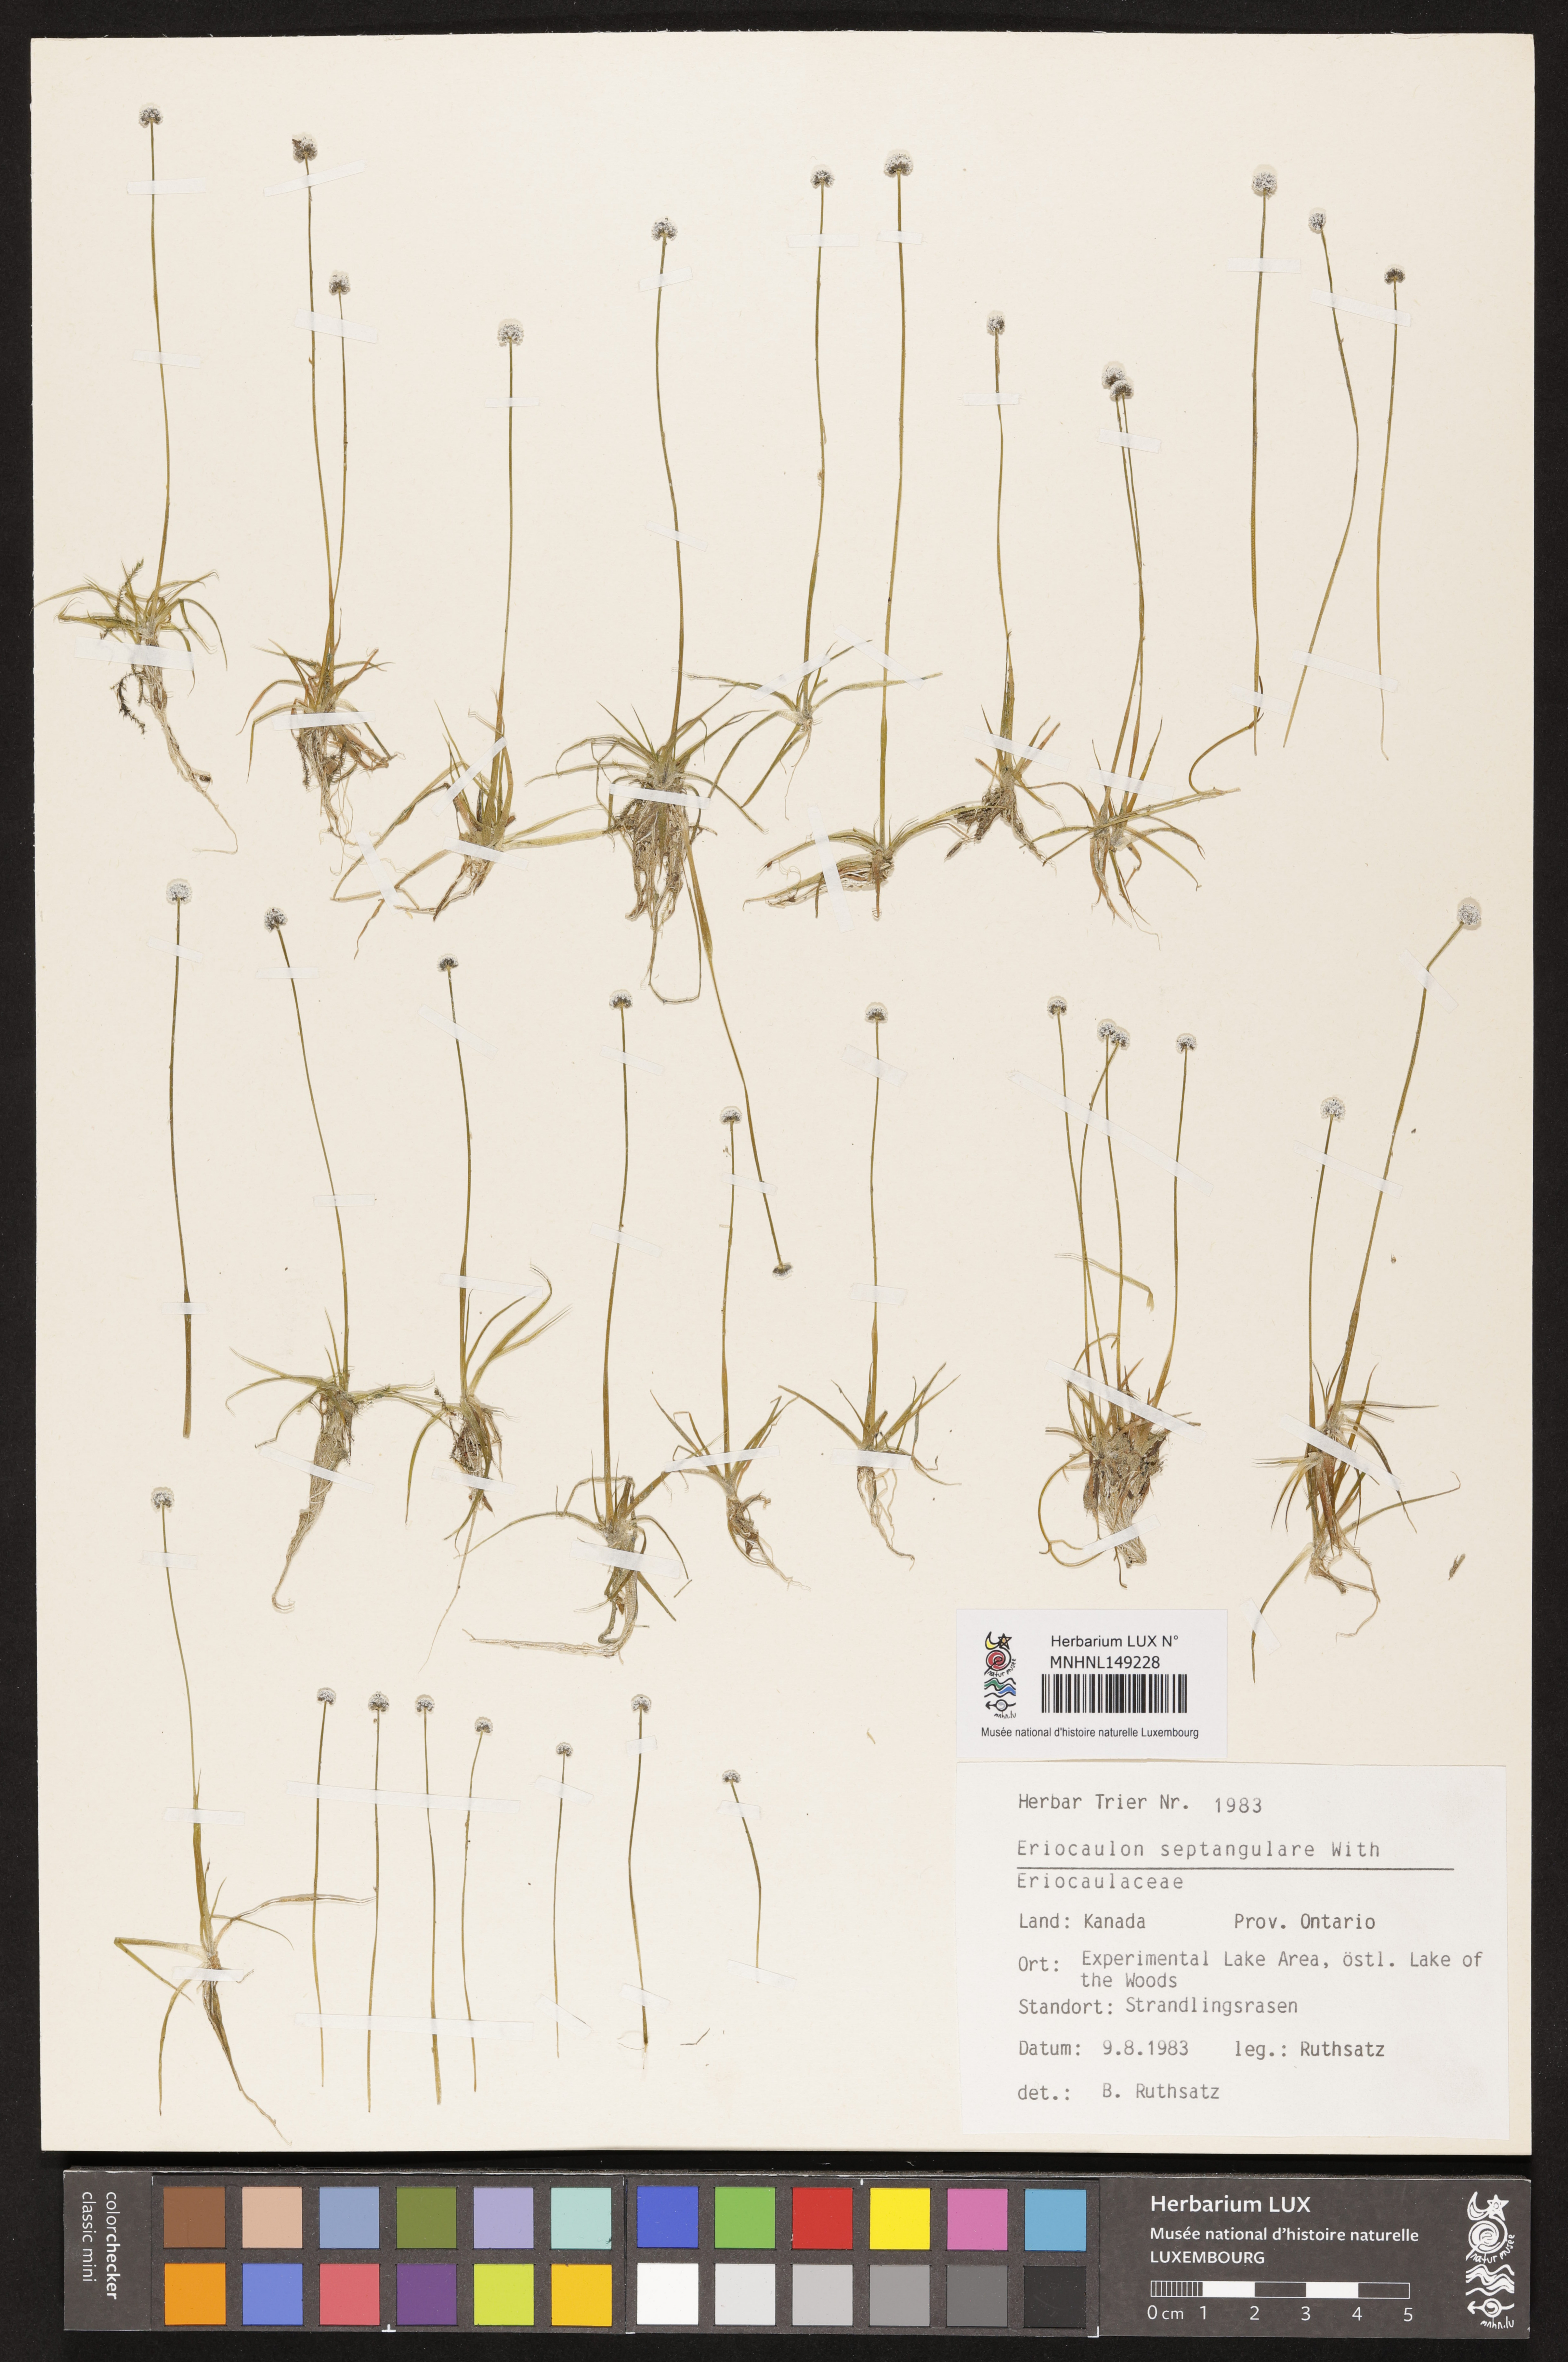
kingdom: Plantae
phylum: Tracheophyta
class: Liliopsida
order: Poales
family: Eriocaulaceae
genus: Eriocaulon
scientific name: Eriocaulon aquaticum
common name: Pipewort
